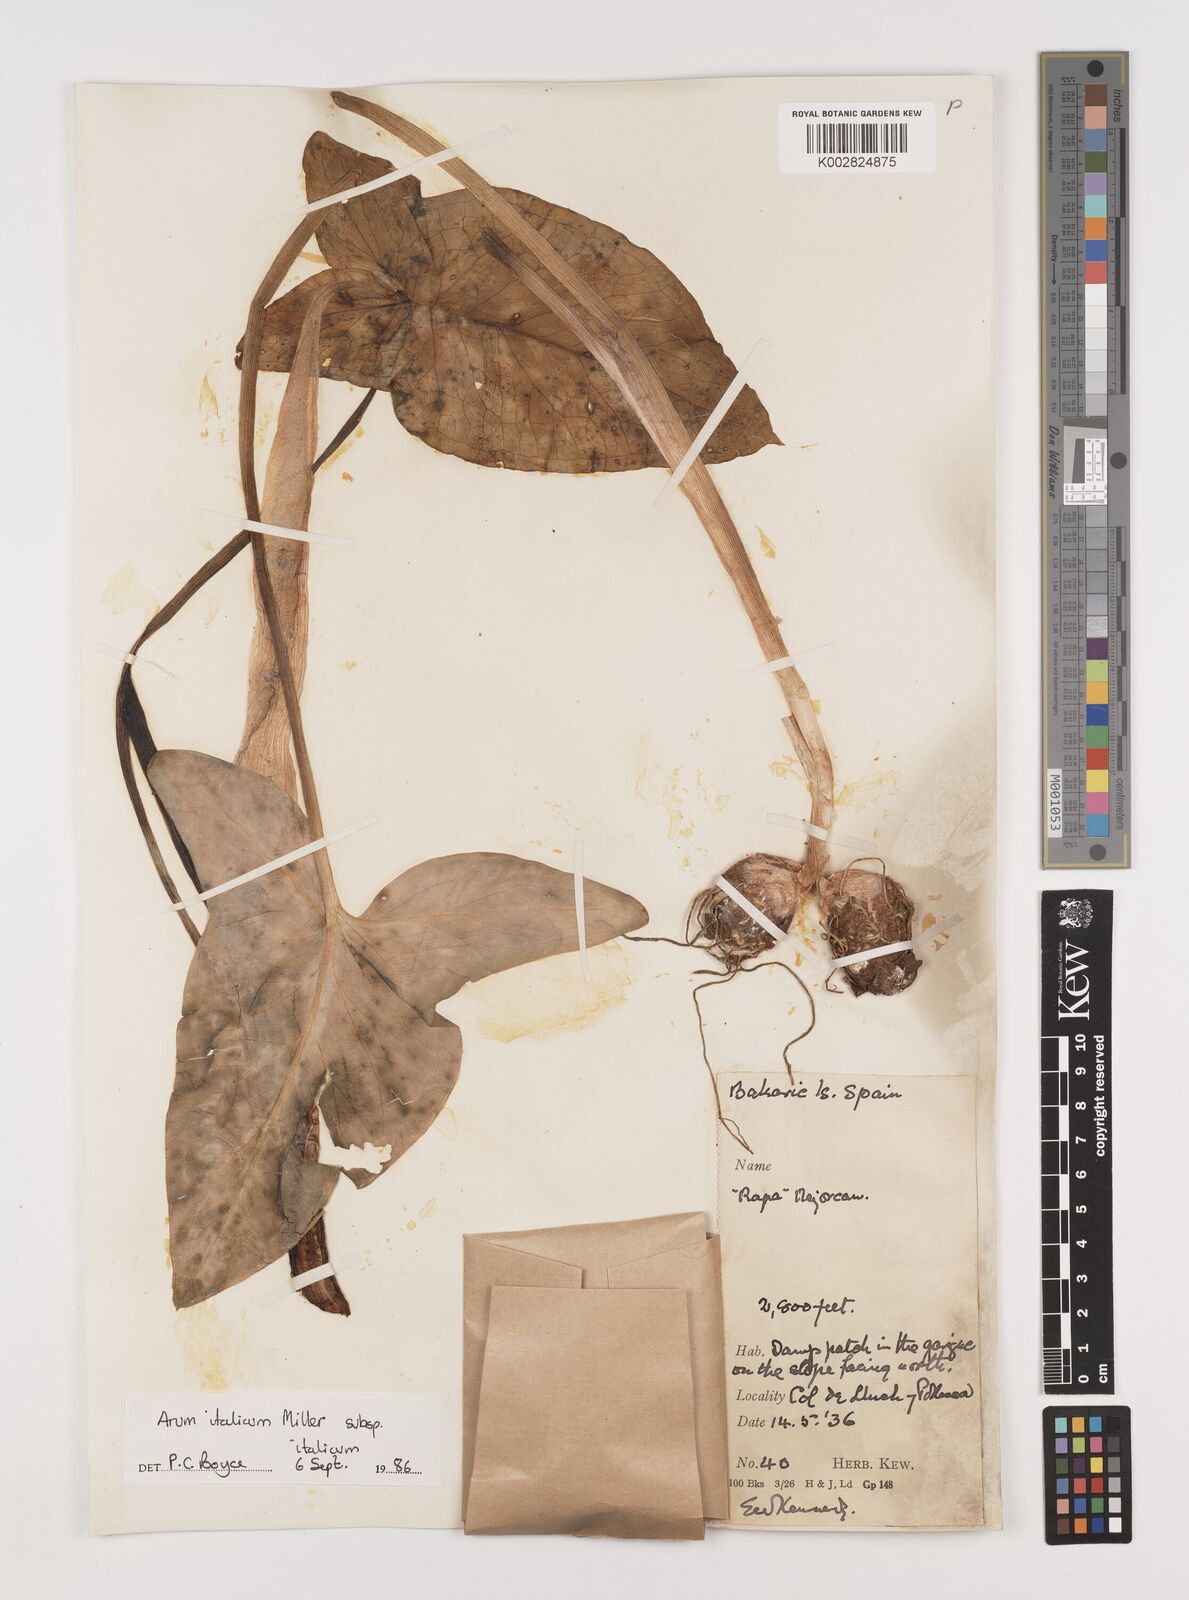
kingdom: Plantae
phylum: Tracheophyta
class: Liliopsida
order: Alismatales
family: Araceae
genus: Arum
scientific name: Arum italicum
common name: Italian lords-and-ladies
